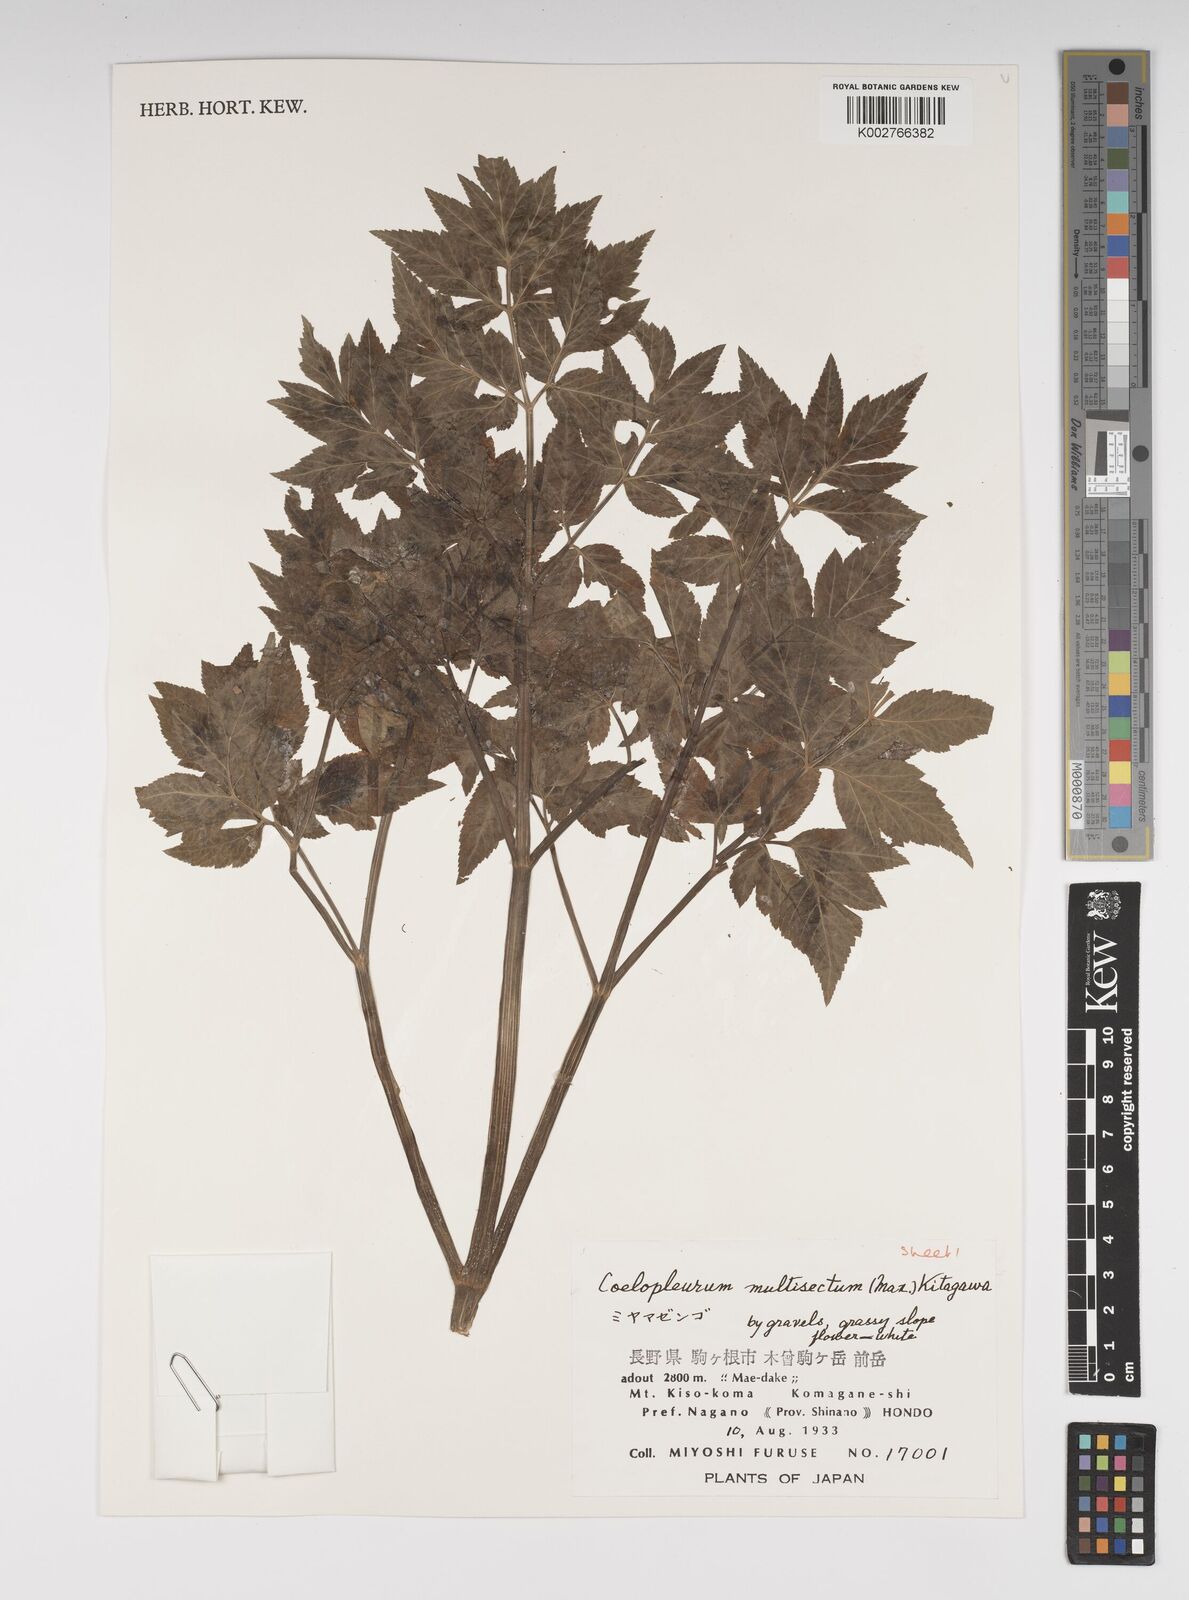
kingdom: Plantae
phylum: Tracheophyta
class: Magnoliopsida
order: Apiales
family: Apiaceae
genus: Angelica
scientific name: Angelica
